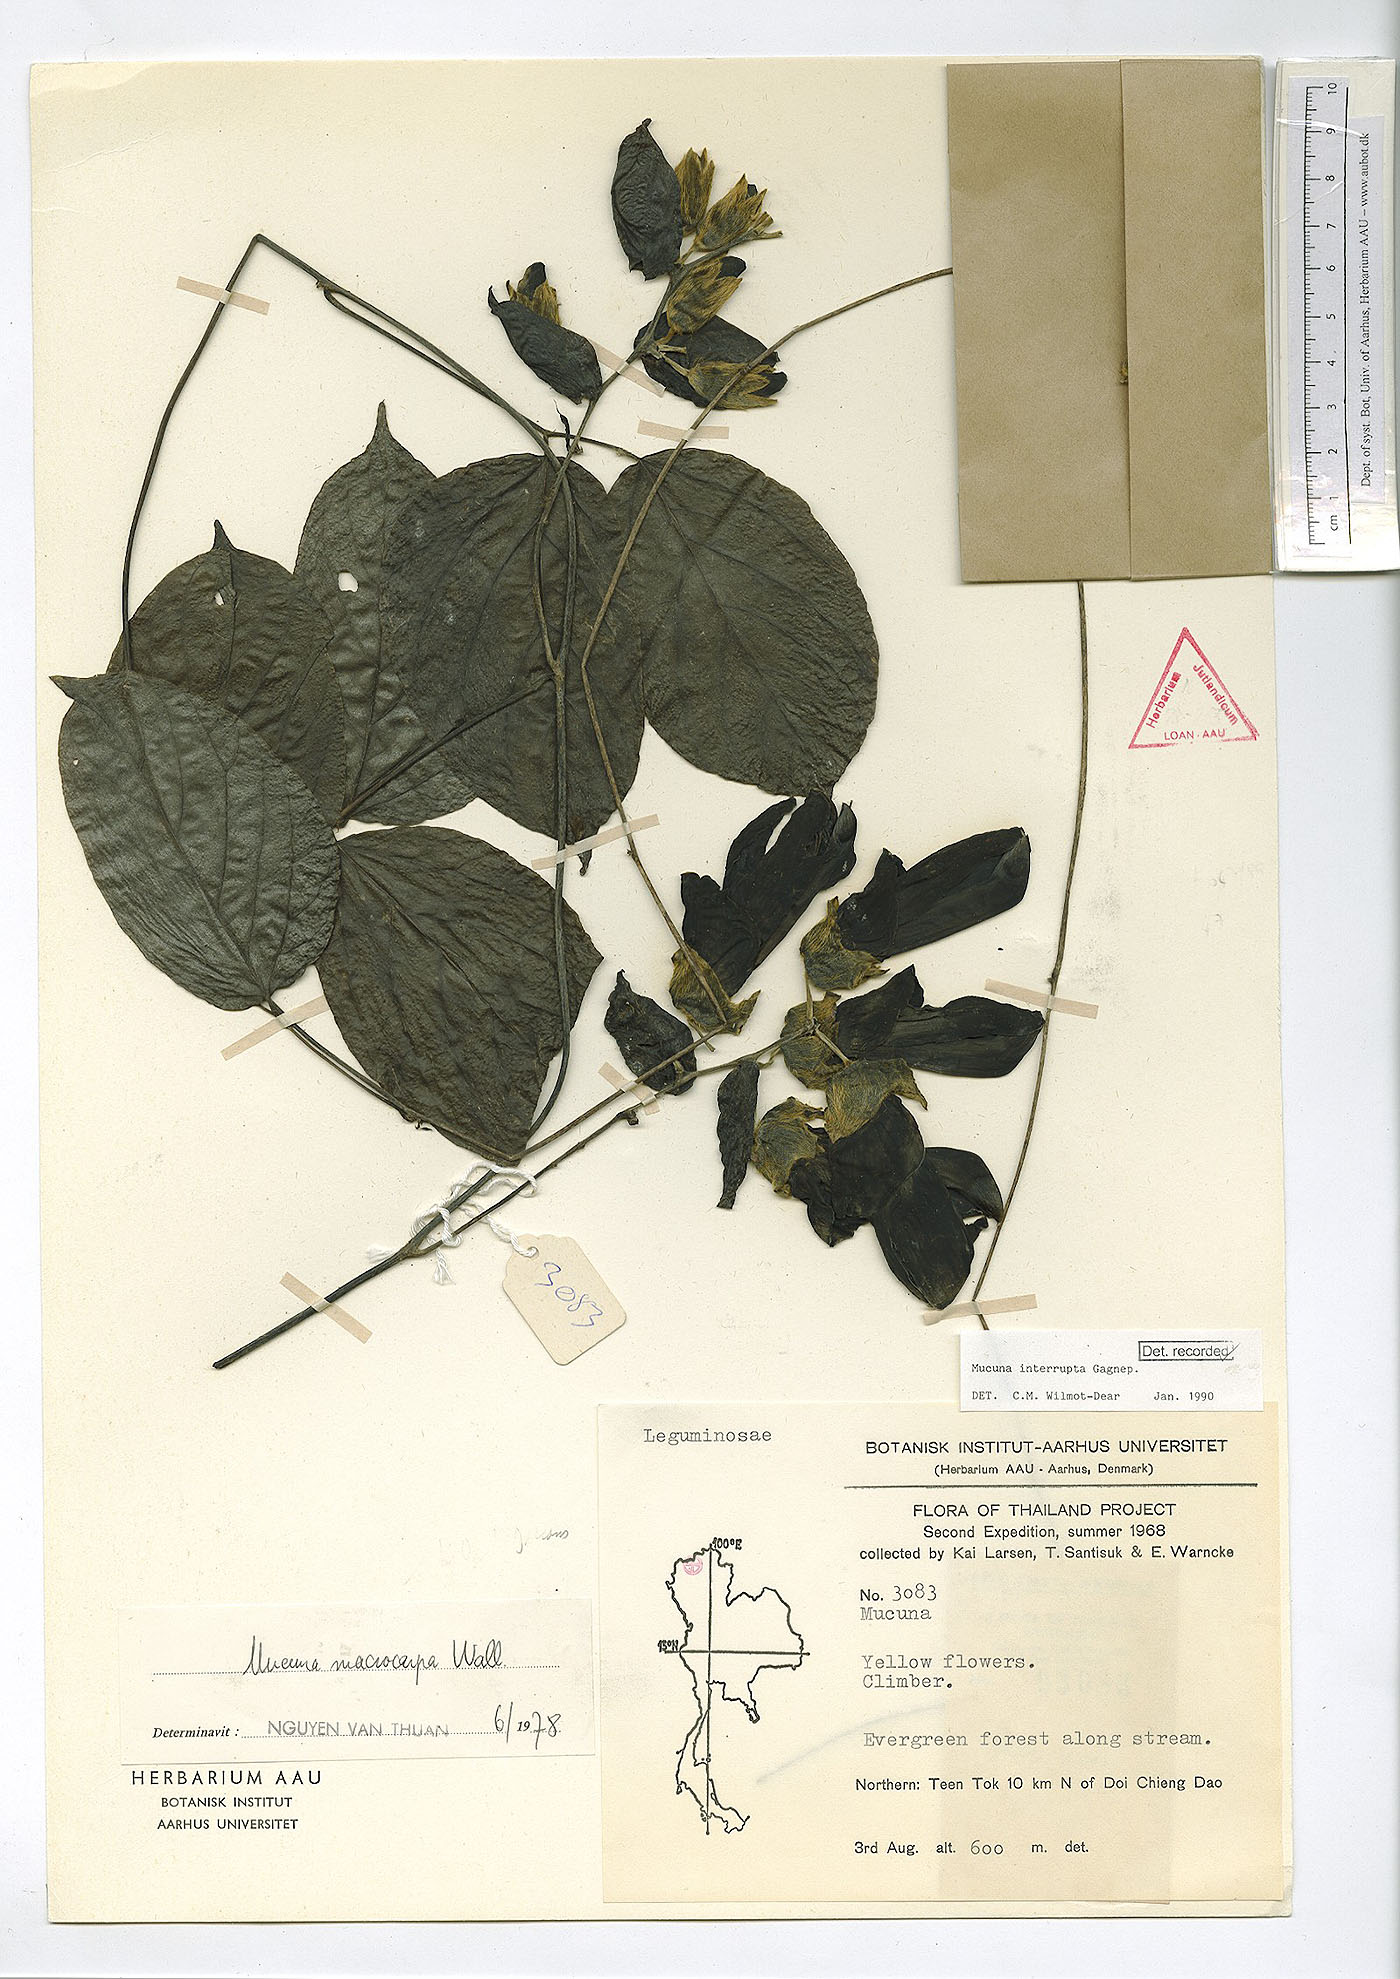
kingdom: Plantae
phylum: Tracheophyta
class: Magnoliopsida
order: Fabales
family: Fabaceae
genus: Mucuna
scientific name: Mucuna interrupta
